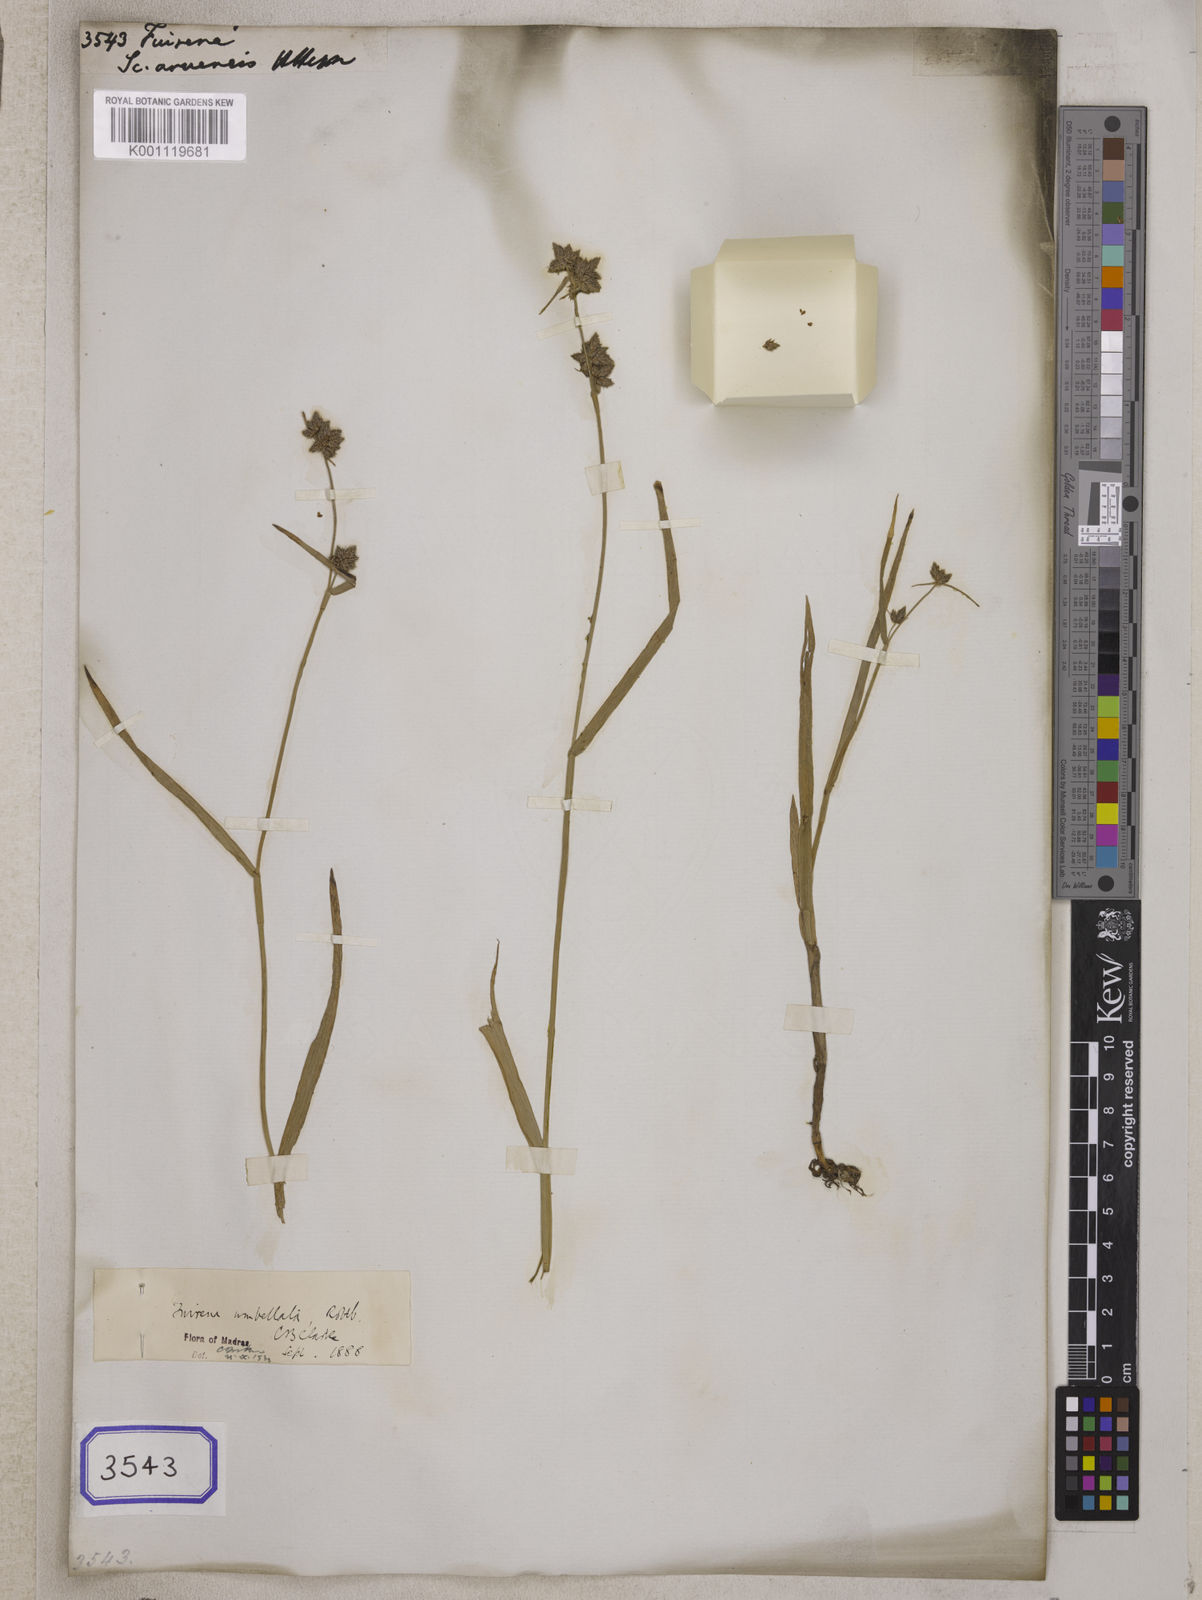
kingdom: Plantae
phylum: Tracheophyta
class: Liliopsida
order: Poales
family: Cyperaceae
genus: Fuirena
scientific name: Fuirena
